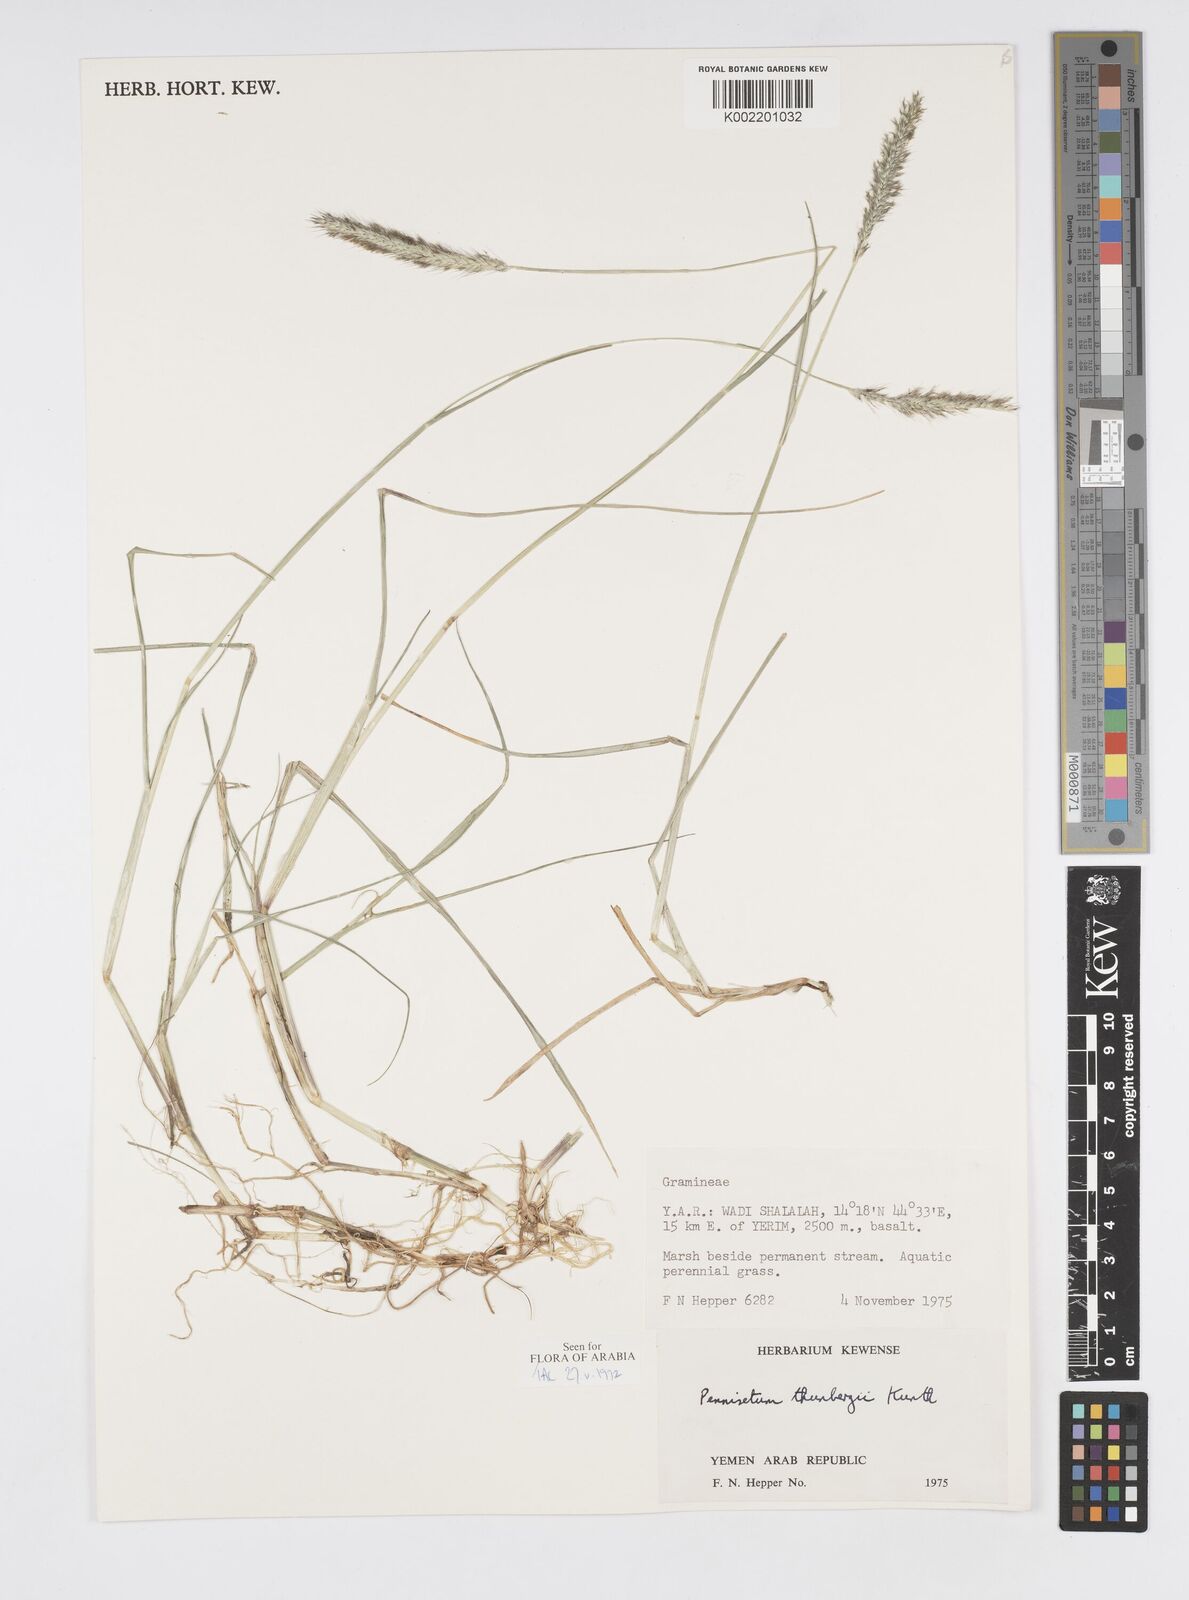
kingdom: Plantae
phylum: Tracheophyta
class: Liliopsida
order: Poales
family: Poaceae
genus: Cenchrus
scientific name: Cenchrus geniculatus
